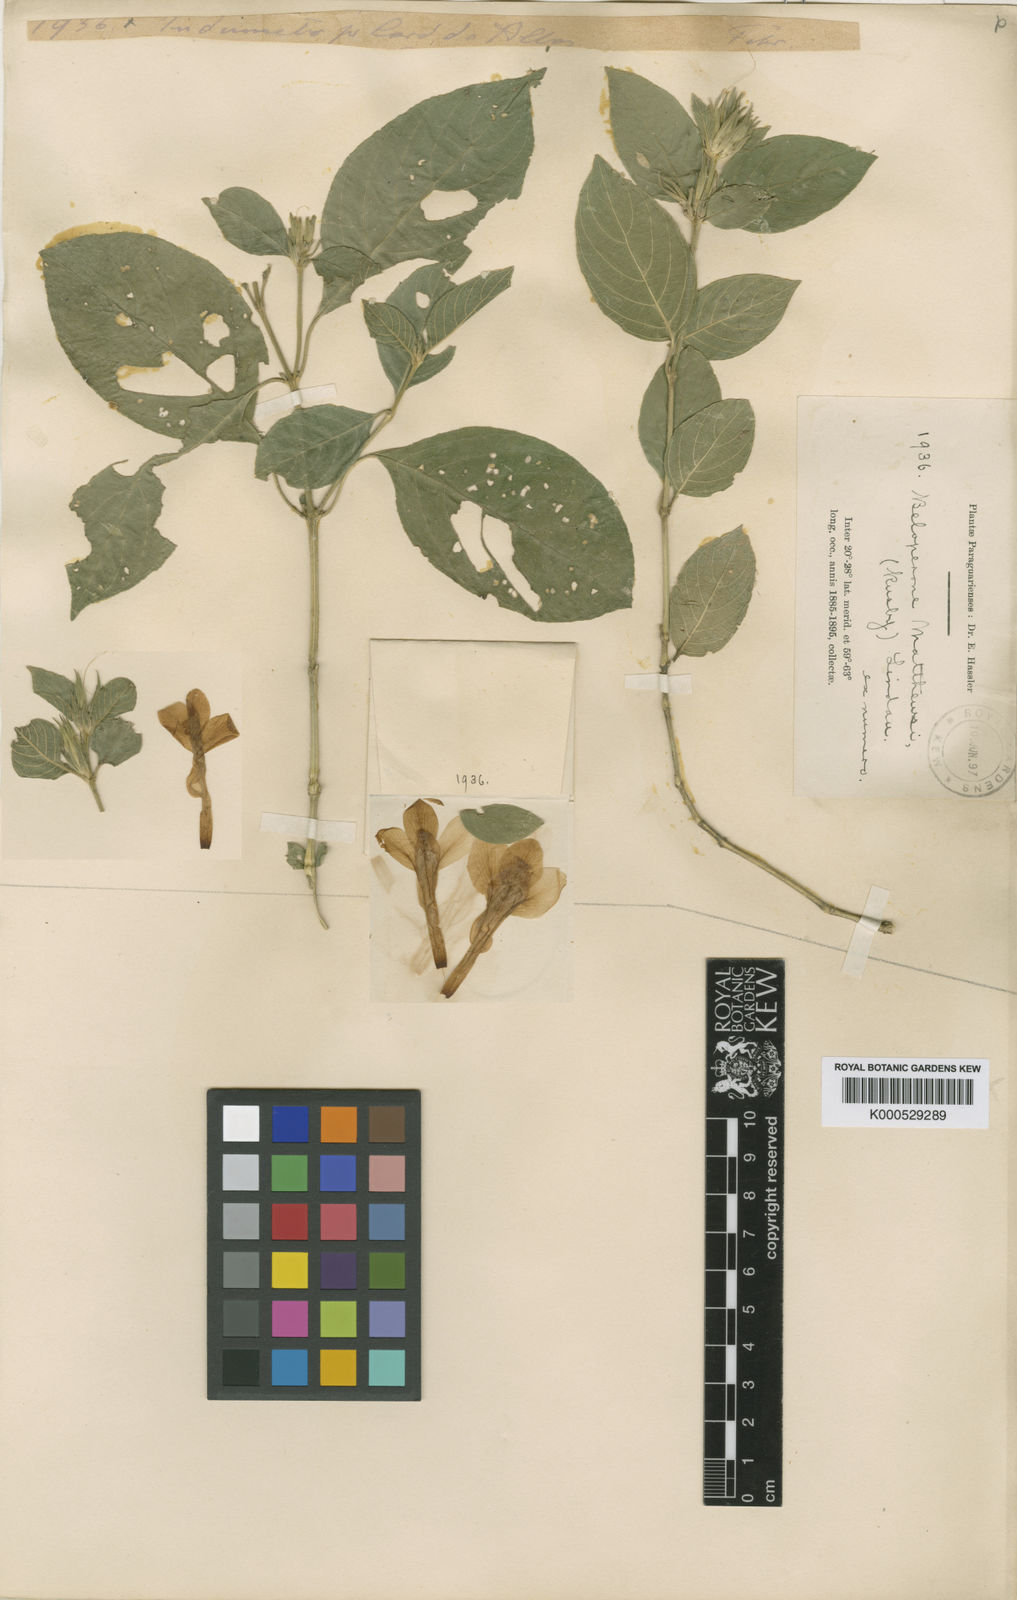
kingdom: Plantae
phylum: Tracheophyta
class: Magnoliopsida
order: Lamiales
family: Acanthaceae
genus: Justicia
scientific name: Justicia rusbyi
